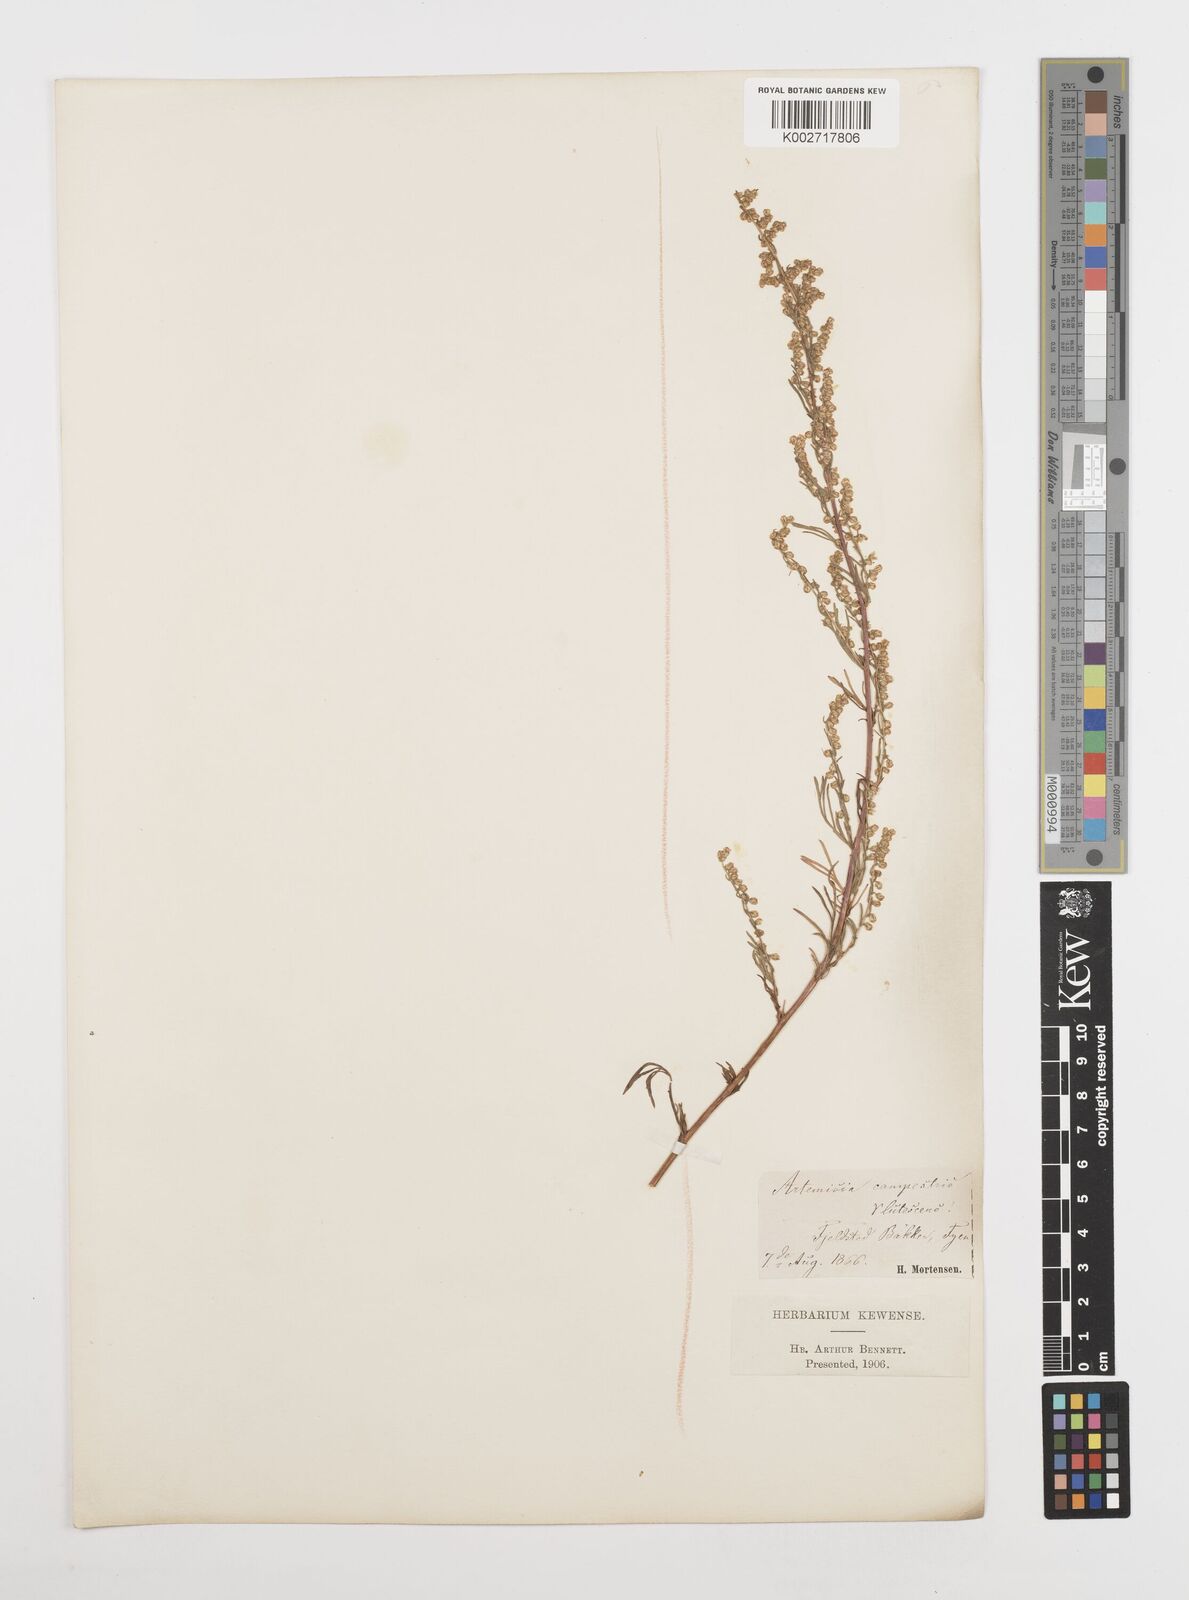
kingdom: Plantae
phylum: Tracheophyta
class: Magnoliopsida
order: Asterales
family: Asteraceae
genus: Artemisia
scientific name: Artemisia campestris
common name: Field wormwood
